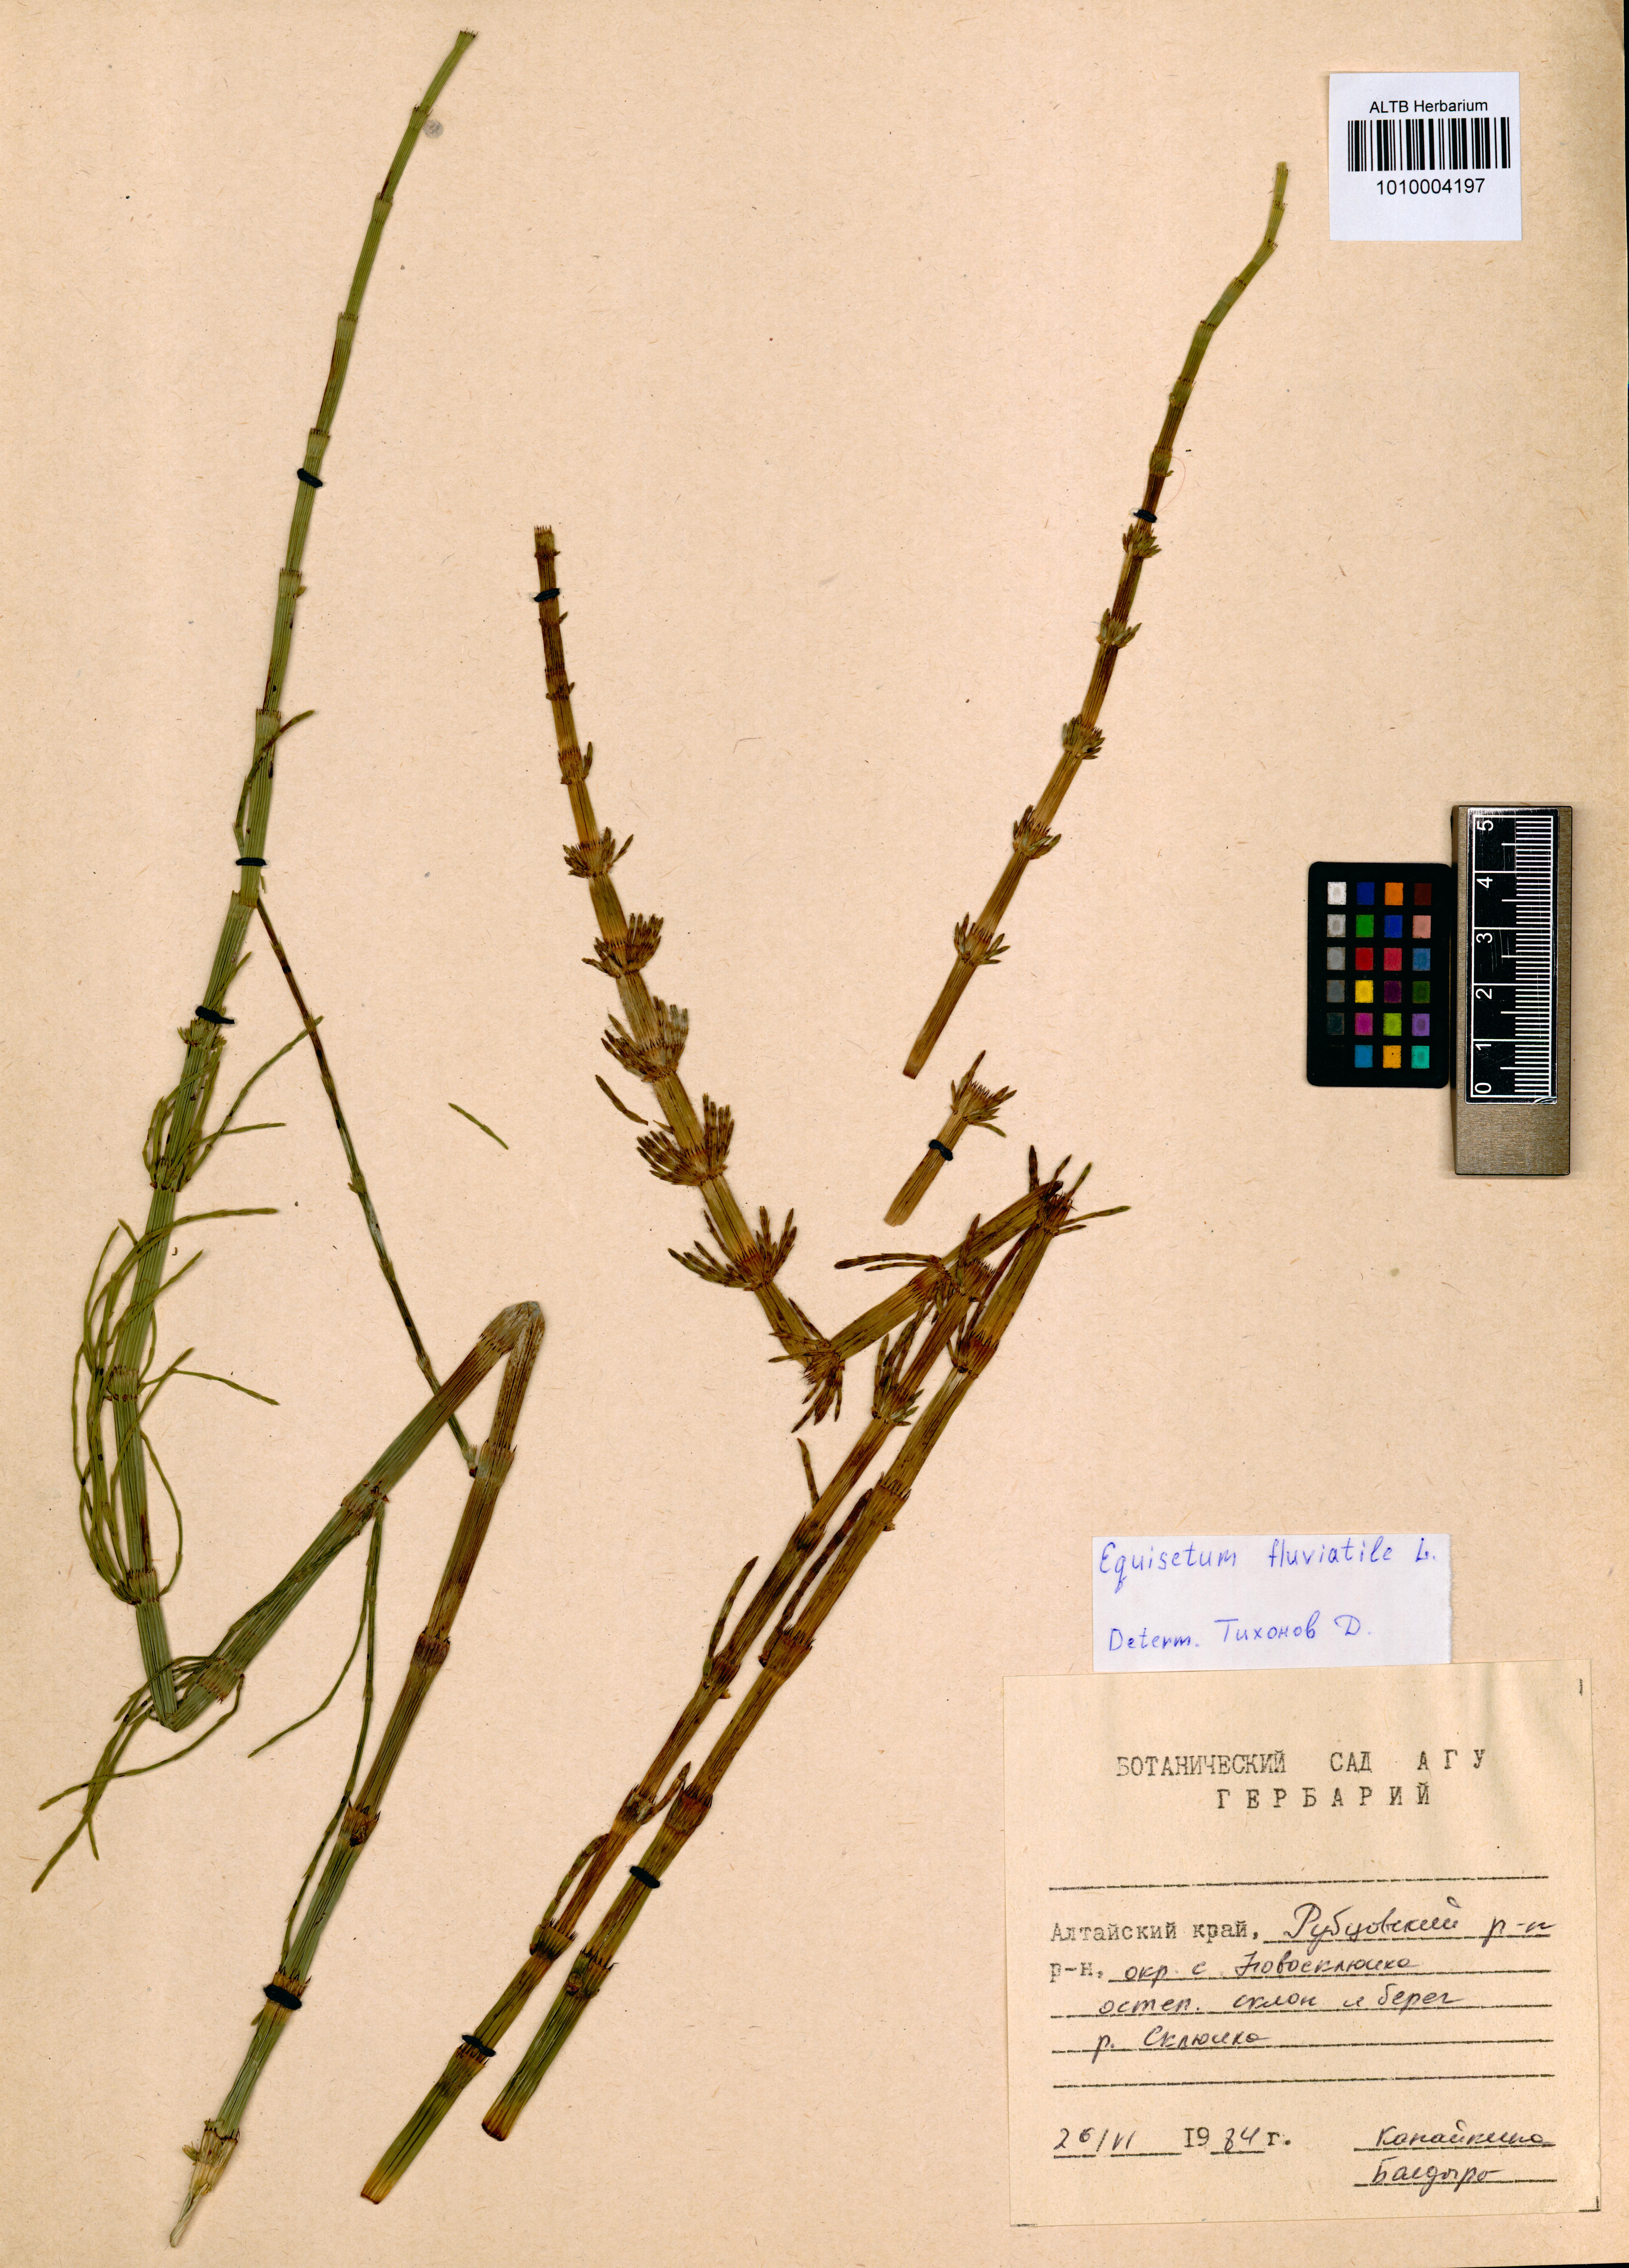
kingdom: Plantae
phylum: Tracheophyta
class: Polypodiopsida
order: Equisetales
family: Equisetaceae
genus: Equisetum
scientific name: Equisetum fluviatile
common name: Water horsetail
